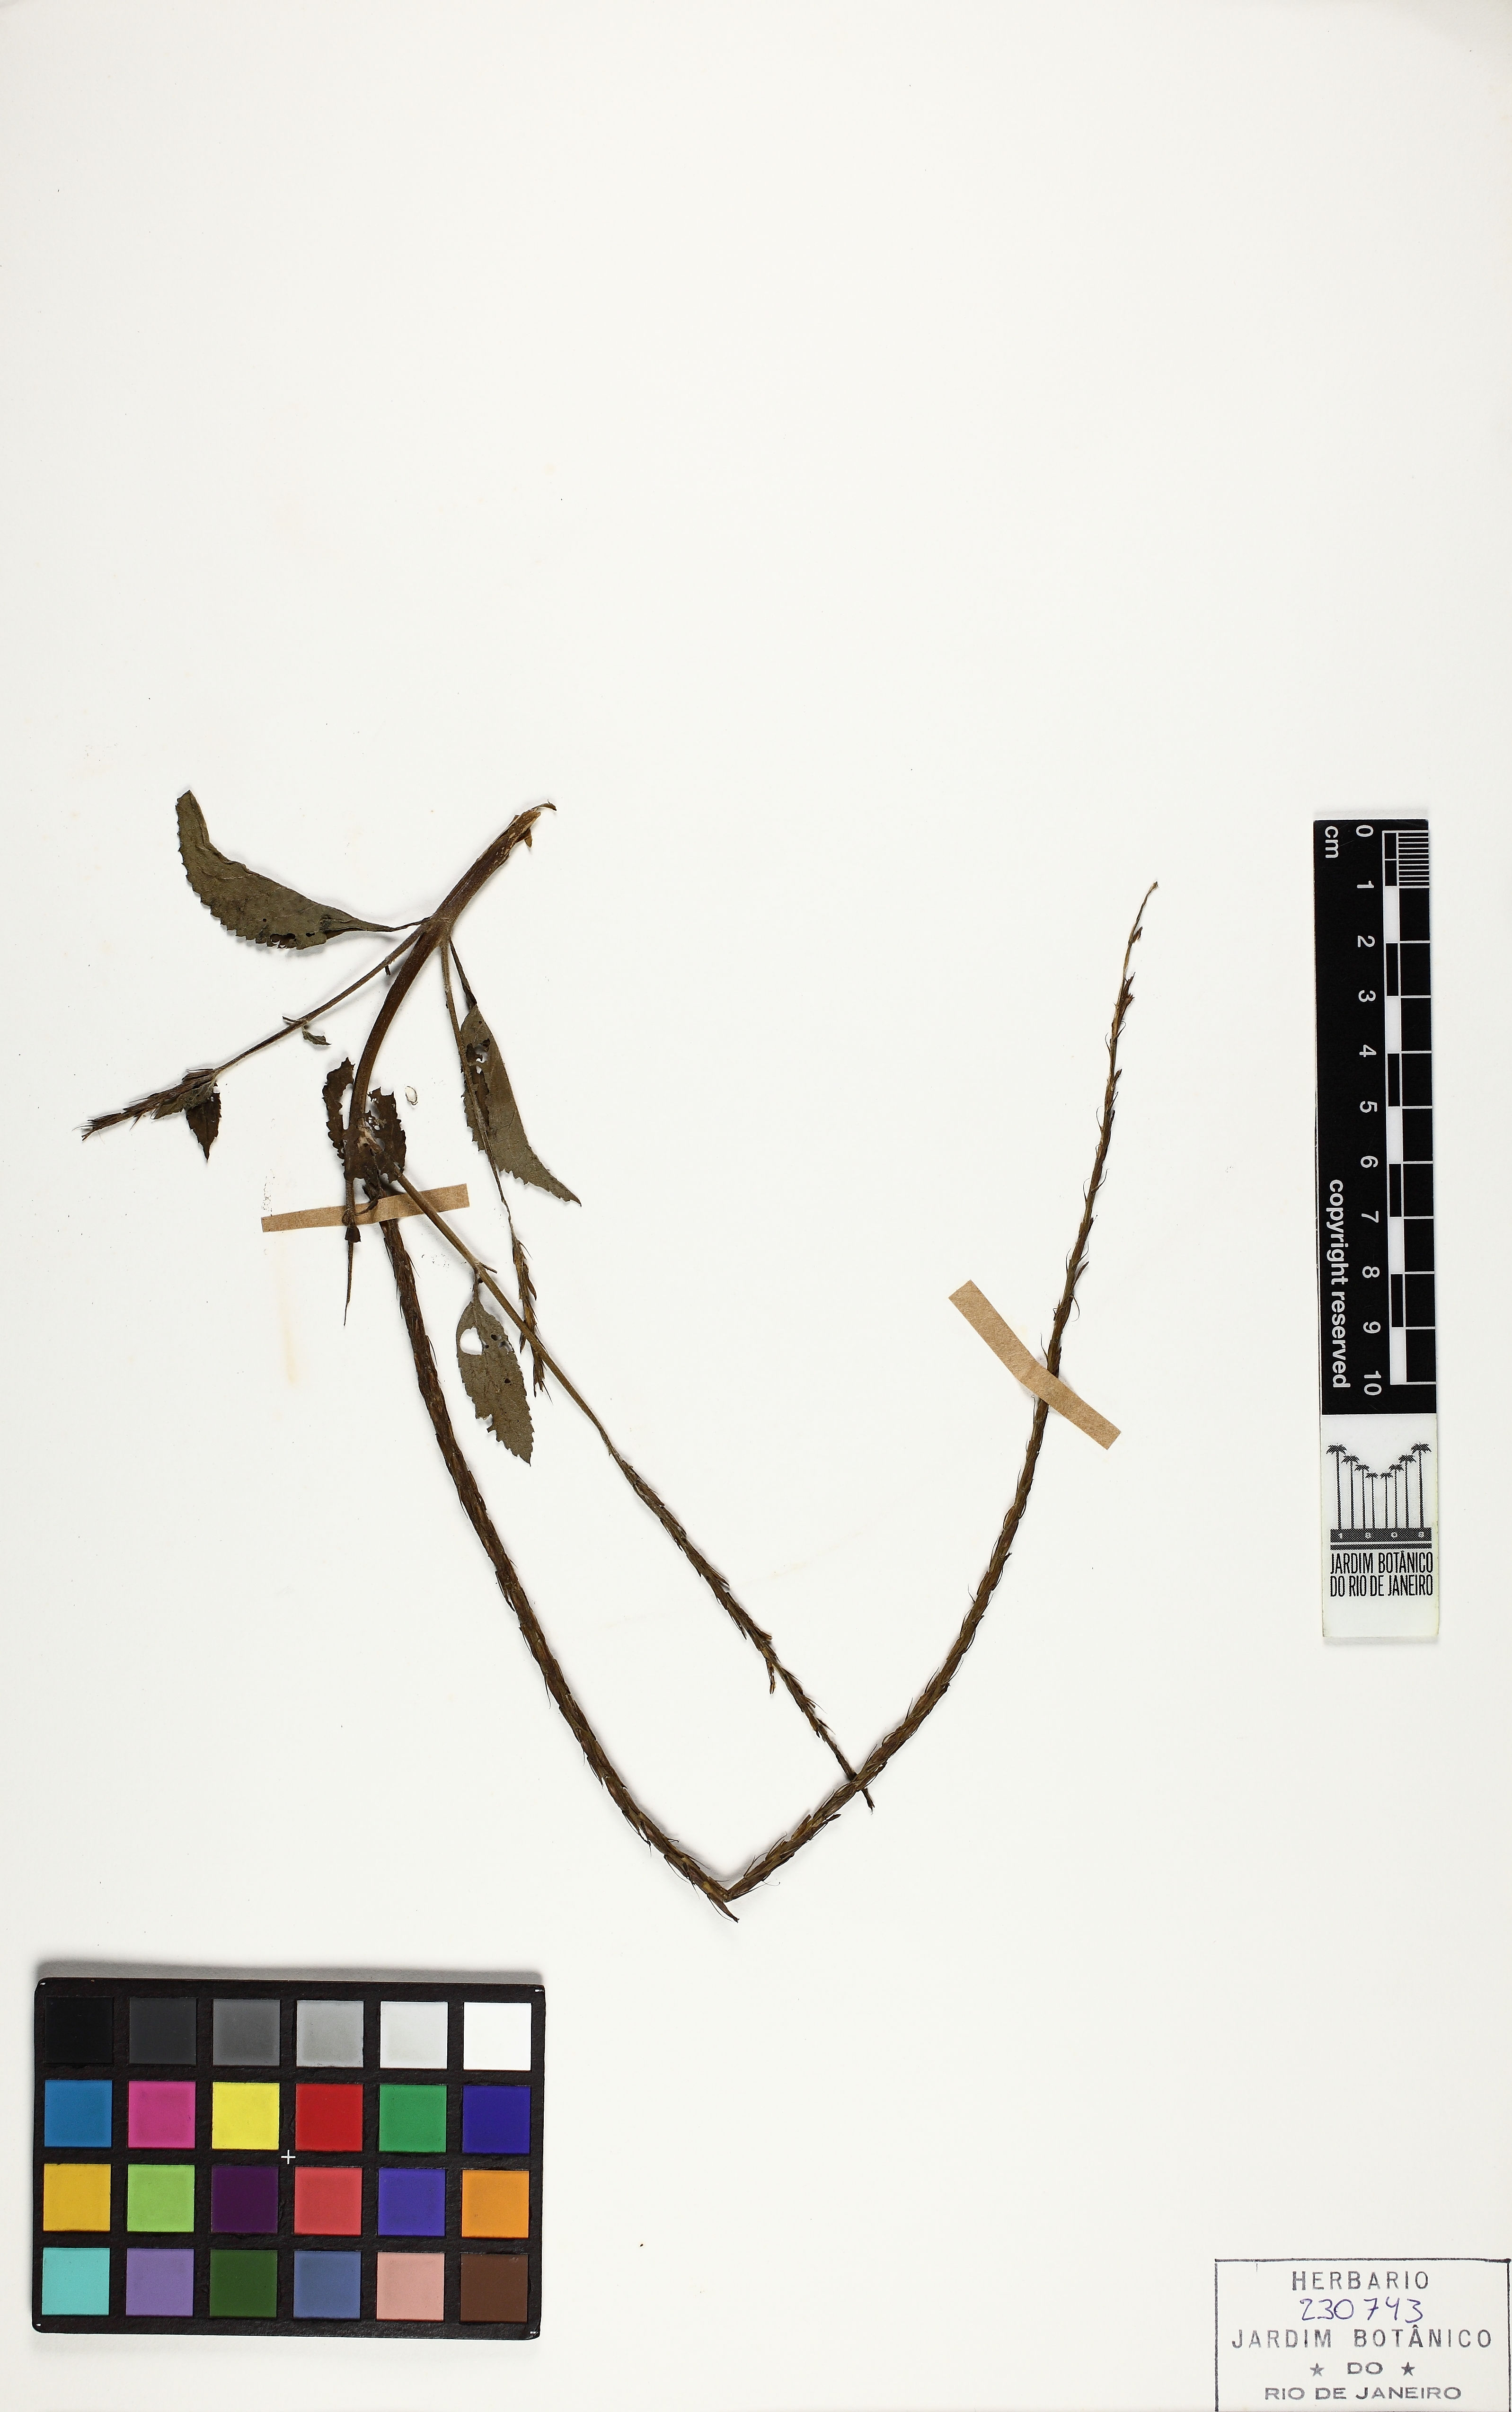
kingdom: Plantae
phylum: Tracheophyta
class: Magnoliopsida
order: Lamiales
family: Verbenaceae
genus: Stachytarpheta
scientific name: Stachytarpheta cayennensis
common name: Cayenne porterweed
